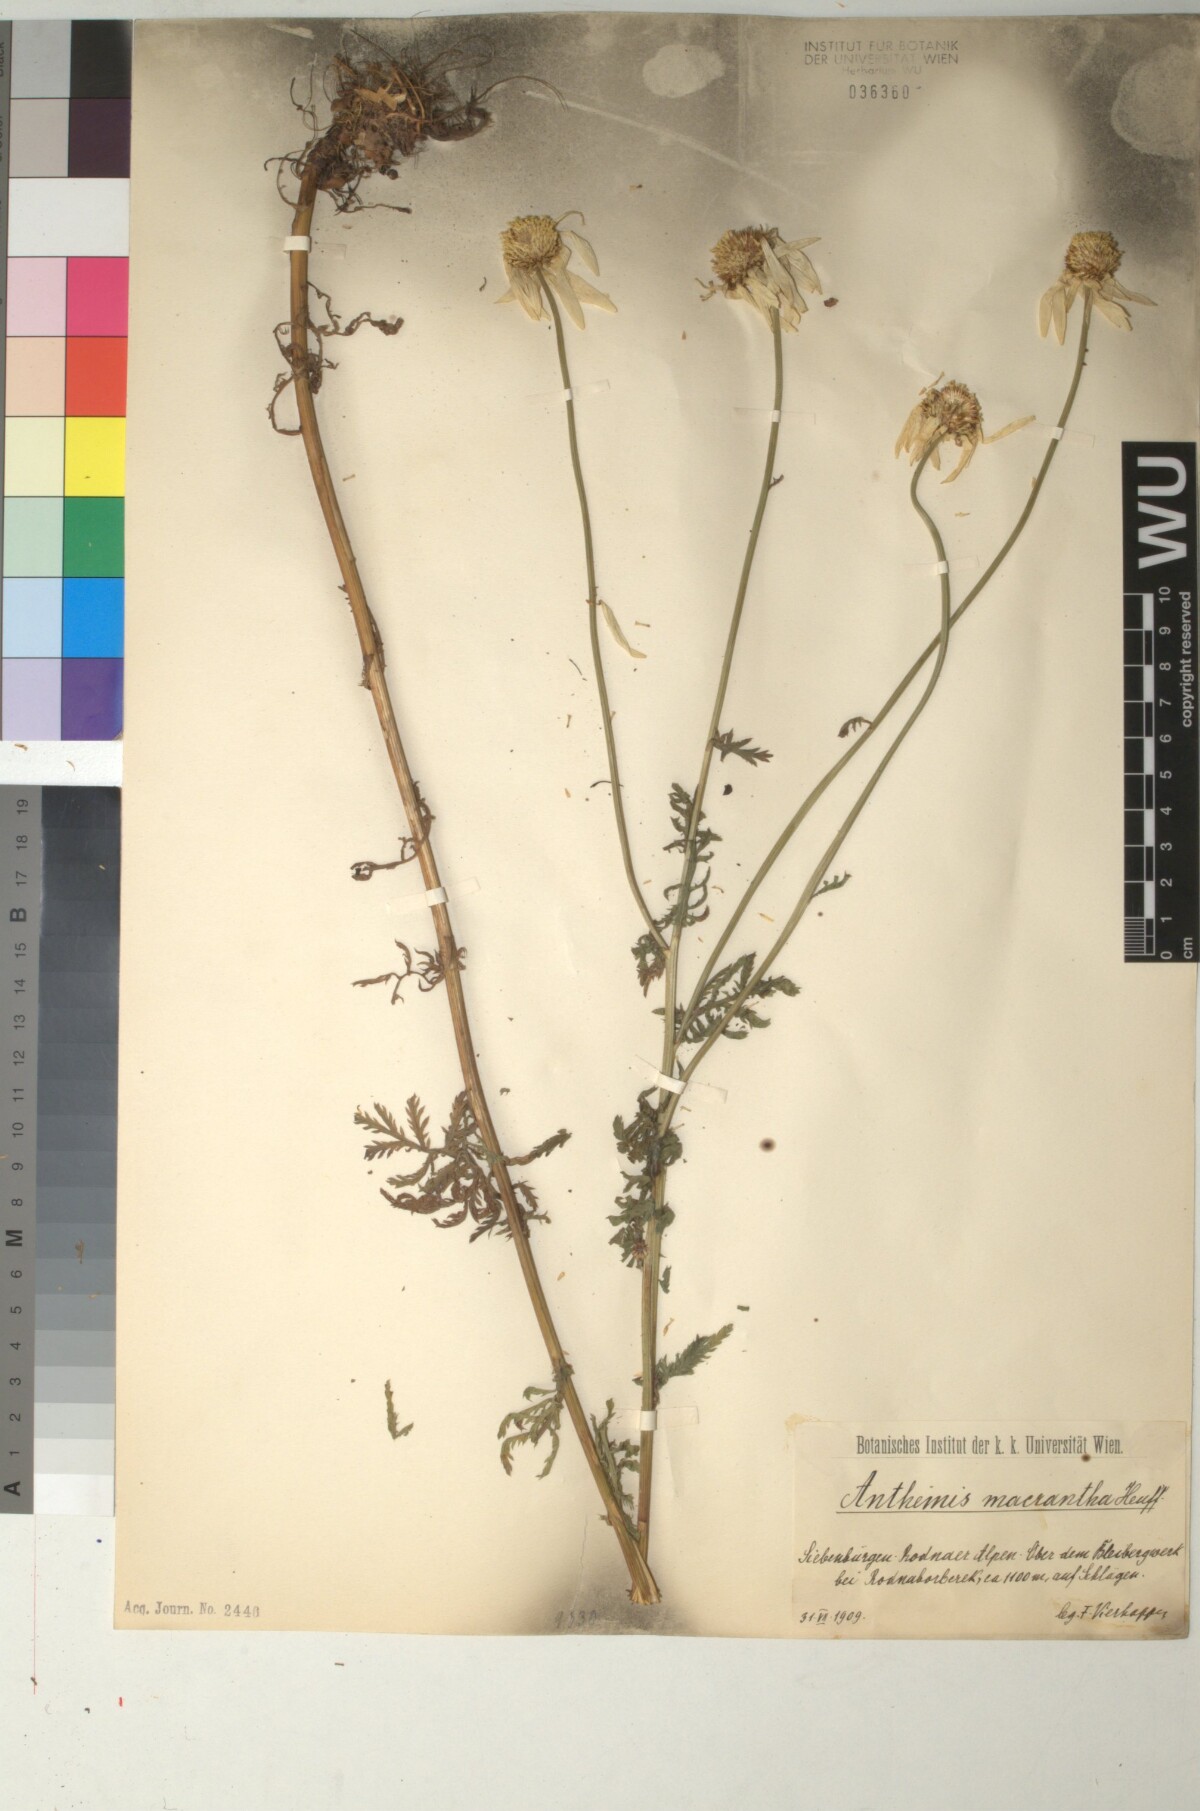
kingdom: Plantae
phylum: Tracheophyta
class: Magnoliopsida
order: Asterales
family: Asteraceae
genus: Cota
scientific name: Cota macrantha
